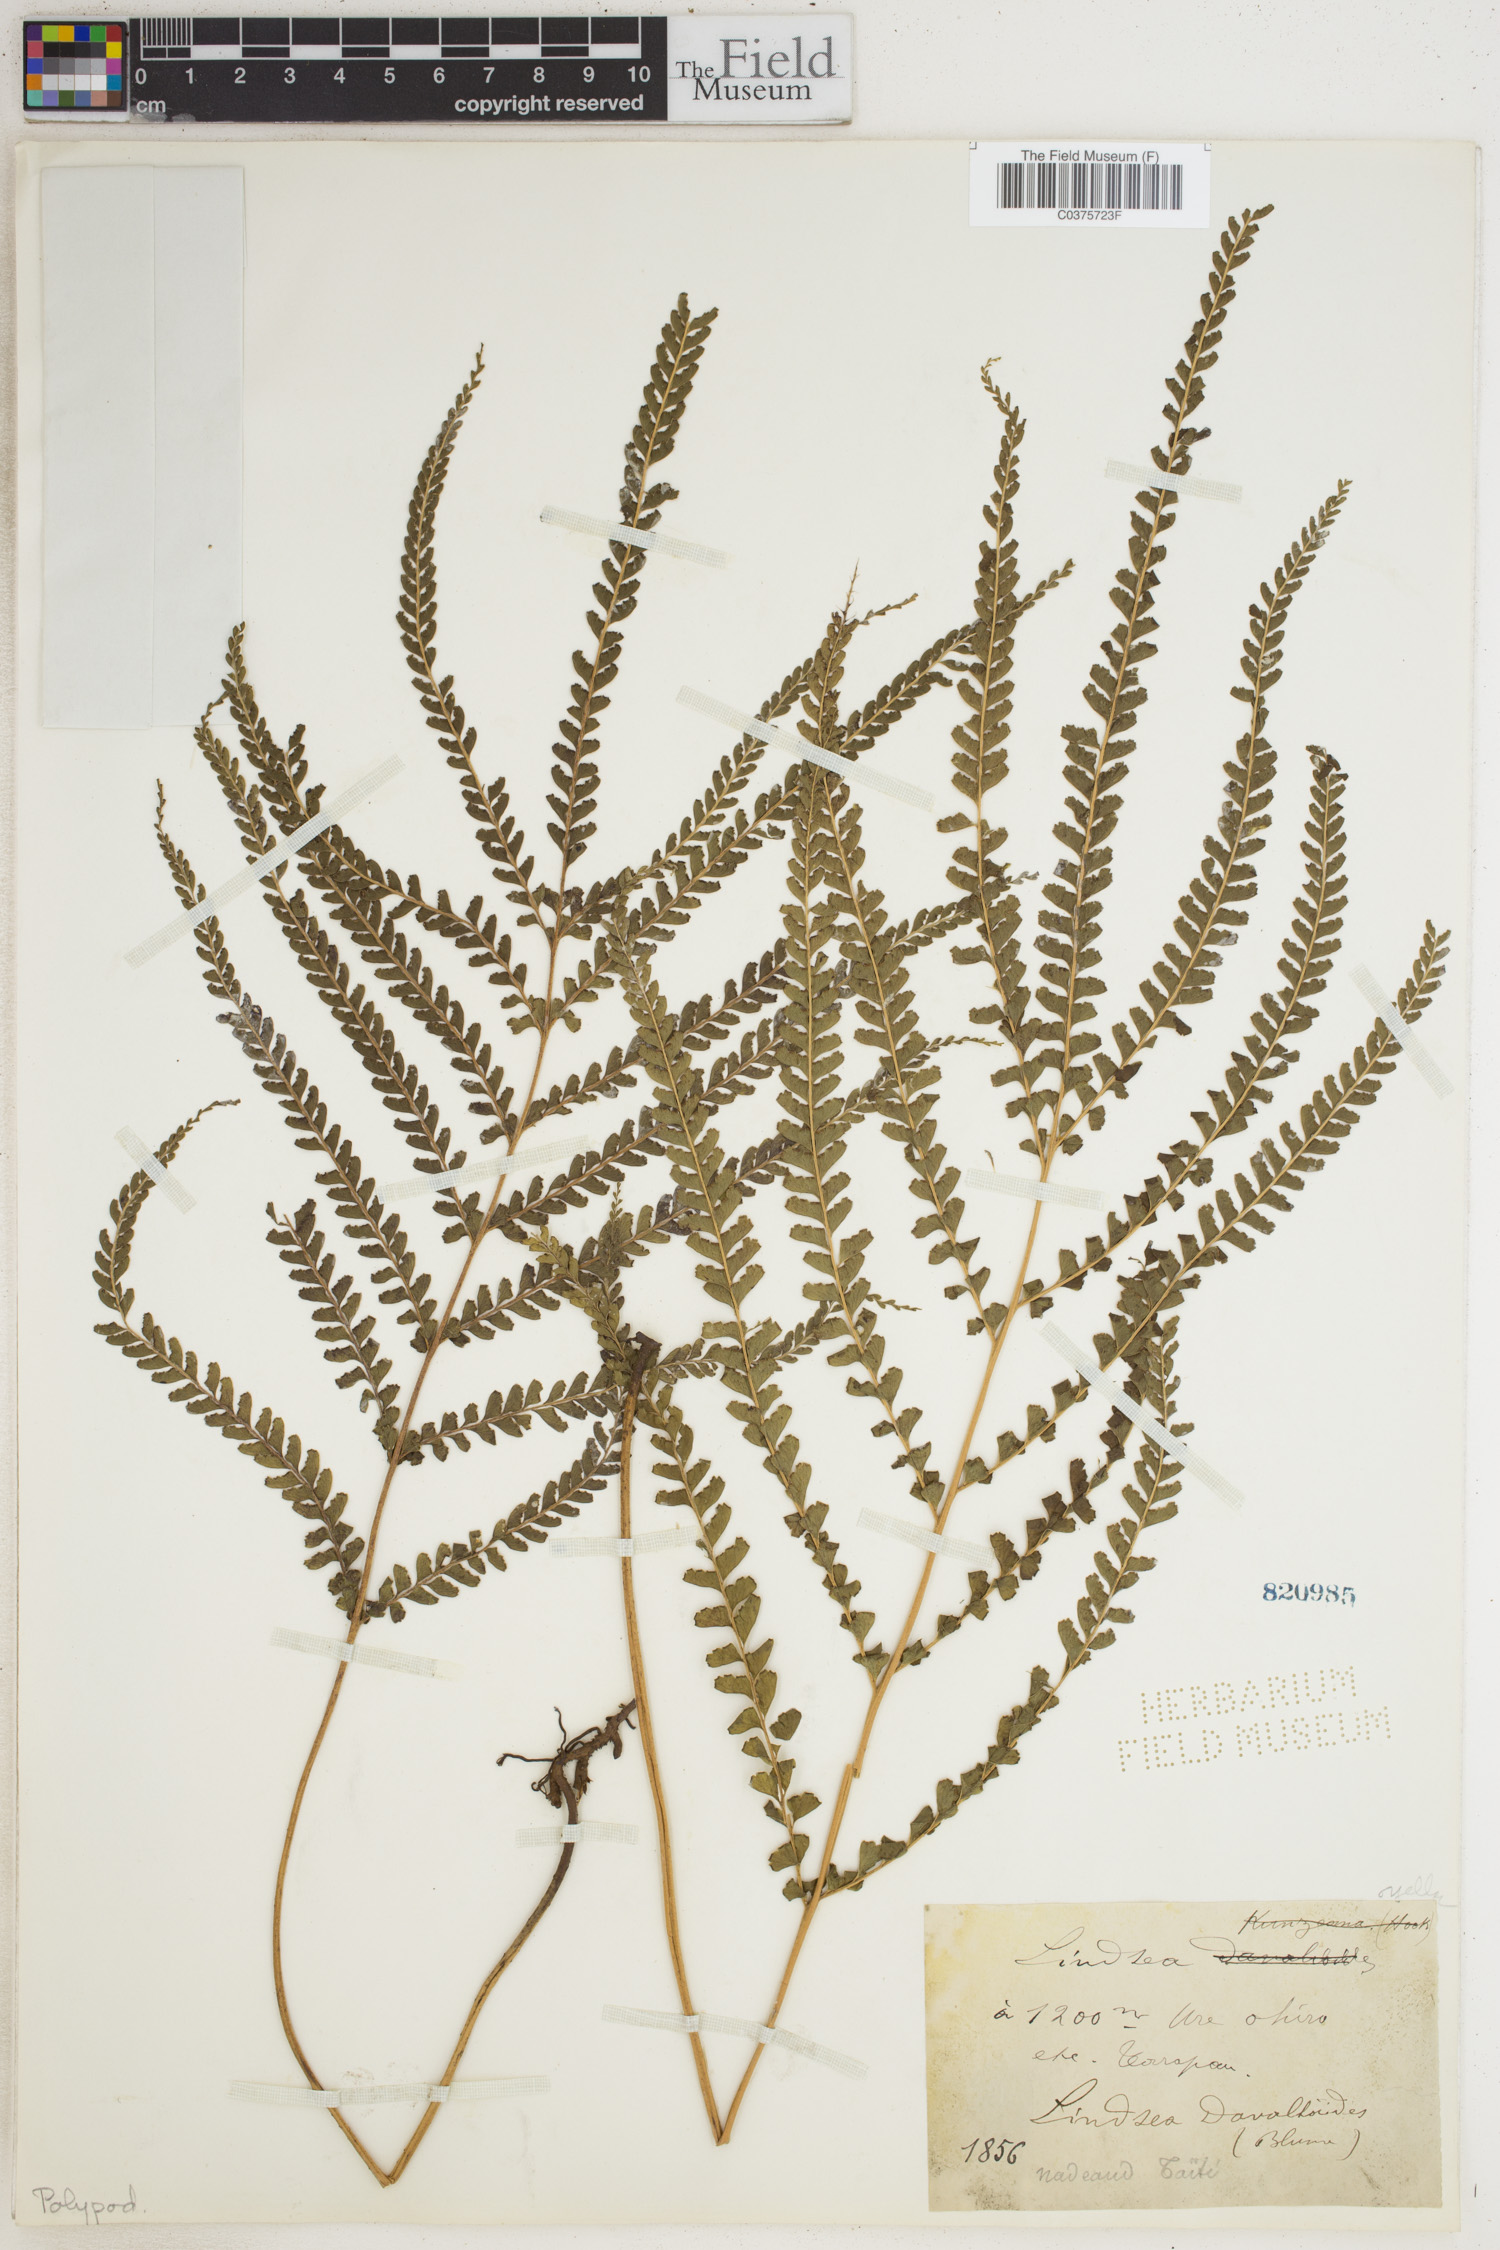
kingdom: Plantae
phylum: Tracheophyta
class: Polypodiopsida
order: Polypodiales
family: Lindsaeaceae
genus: Lindsaea
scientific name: Lindsaea
